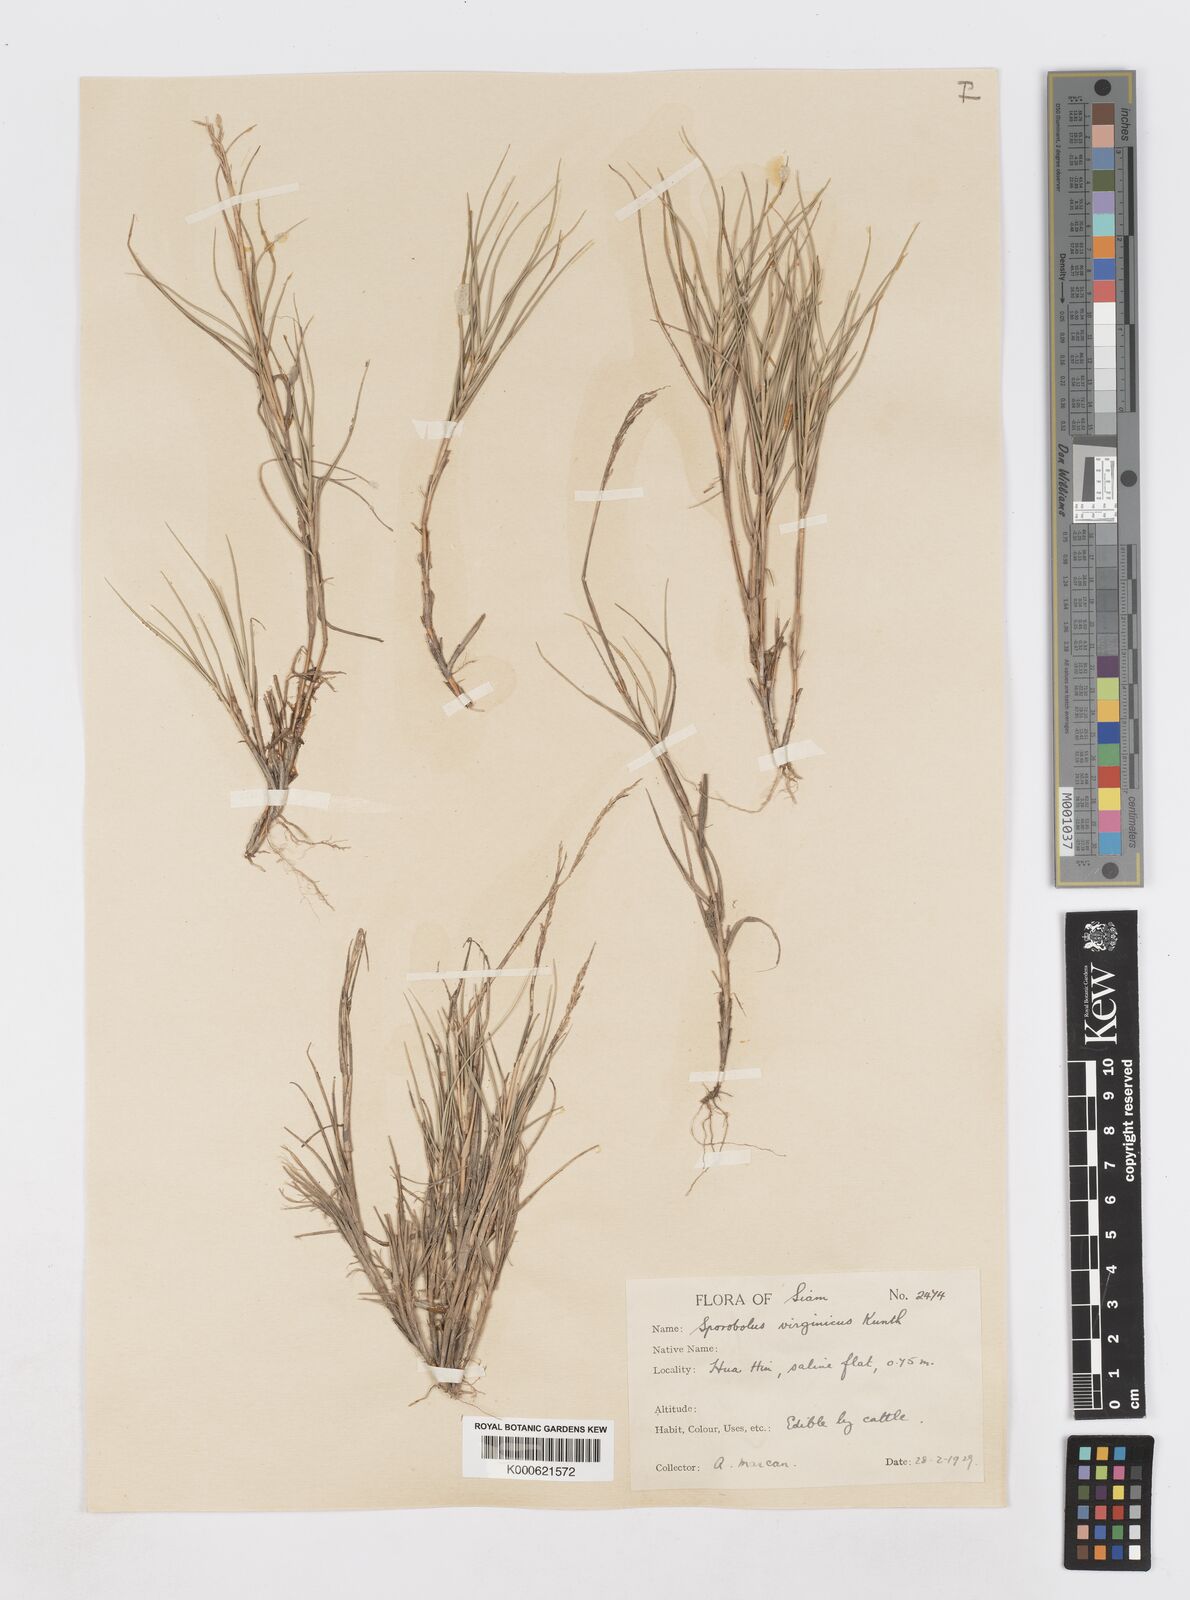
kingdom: Plantae
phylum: Tracheophyta
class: Liliopsida
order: Poales
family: Poaceae
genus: Sporobolus
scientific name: Sporobolus virginicus
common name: Beach dropseed
